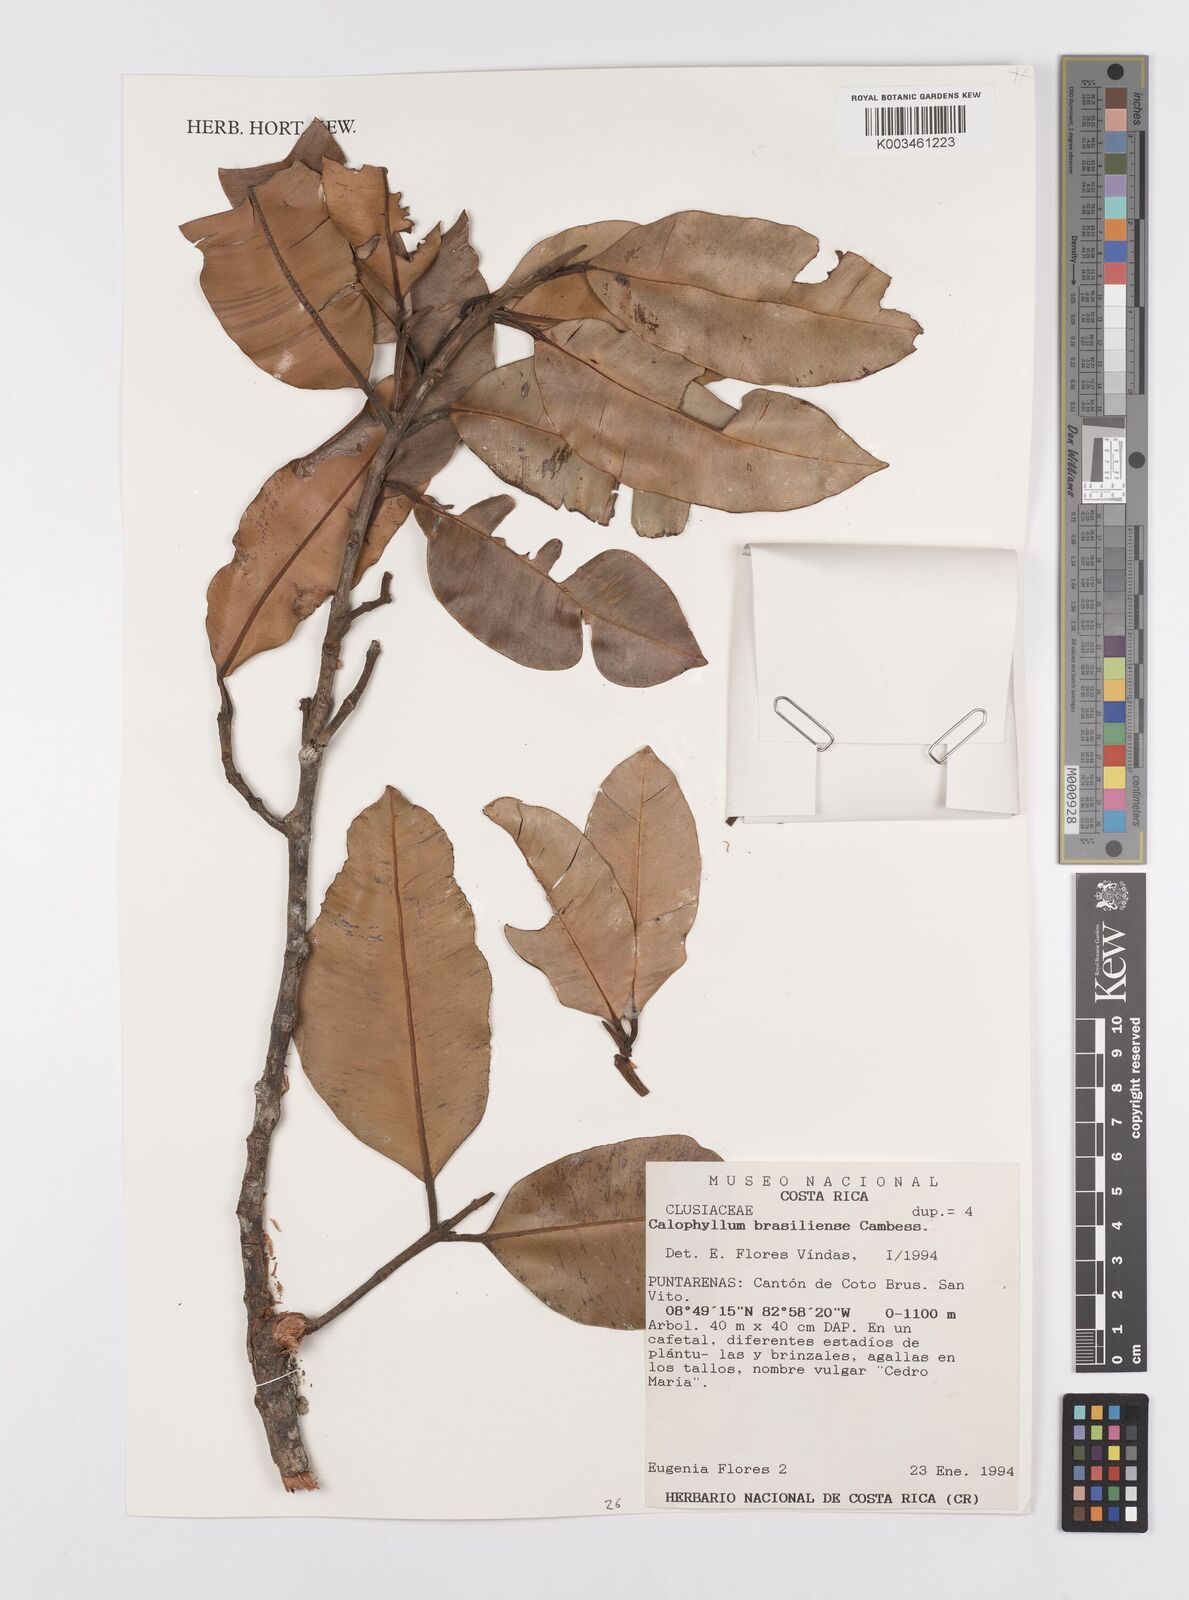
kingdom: Plantae
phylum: Tracheophyta
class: Magnoliopsida
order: Malpighiales
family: Calophyllaceae
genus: Calophyllum
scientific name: Calophyllum brasiliense
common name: Santa maria
